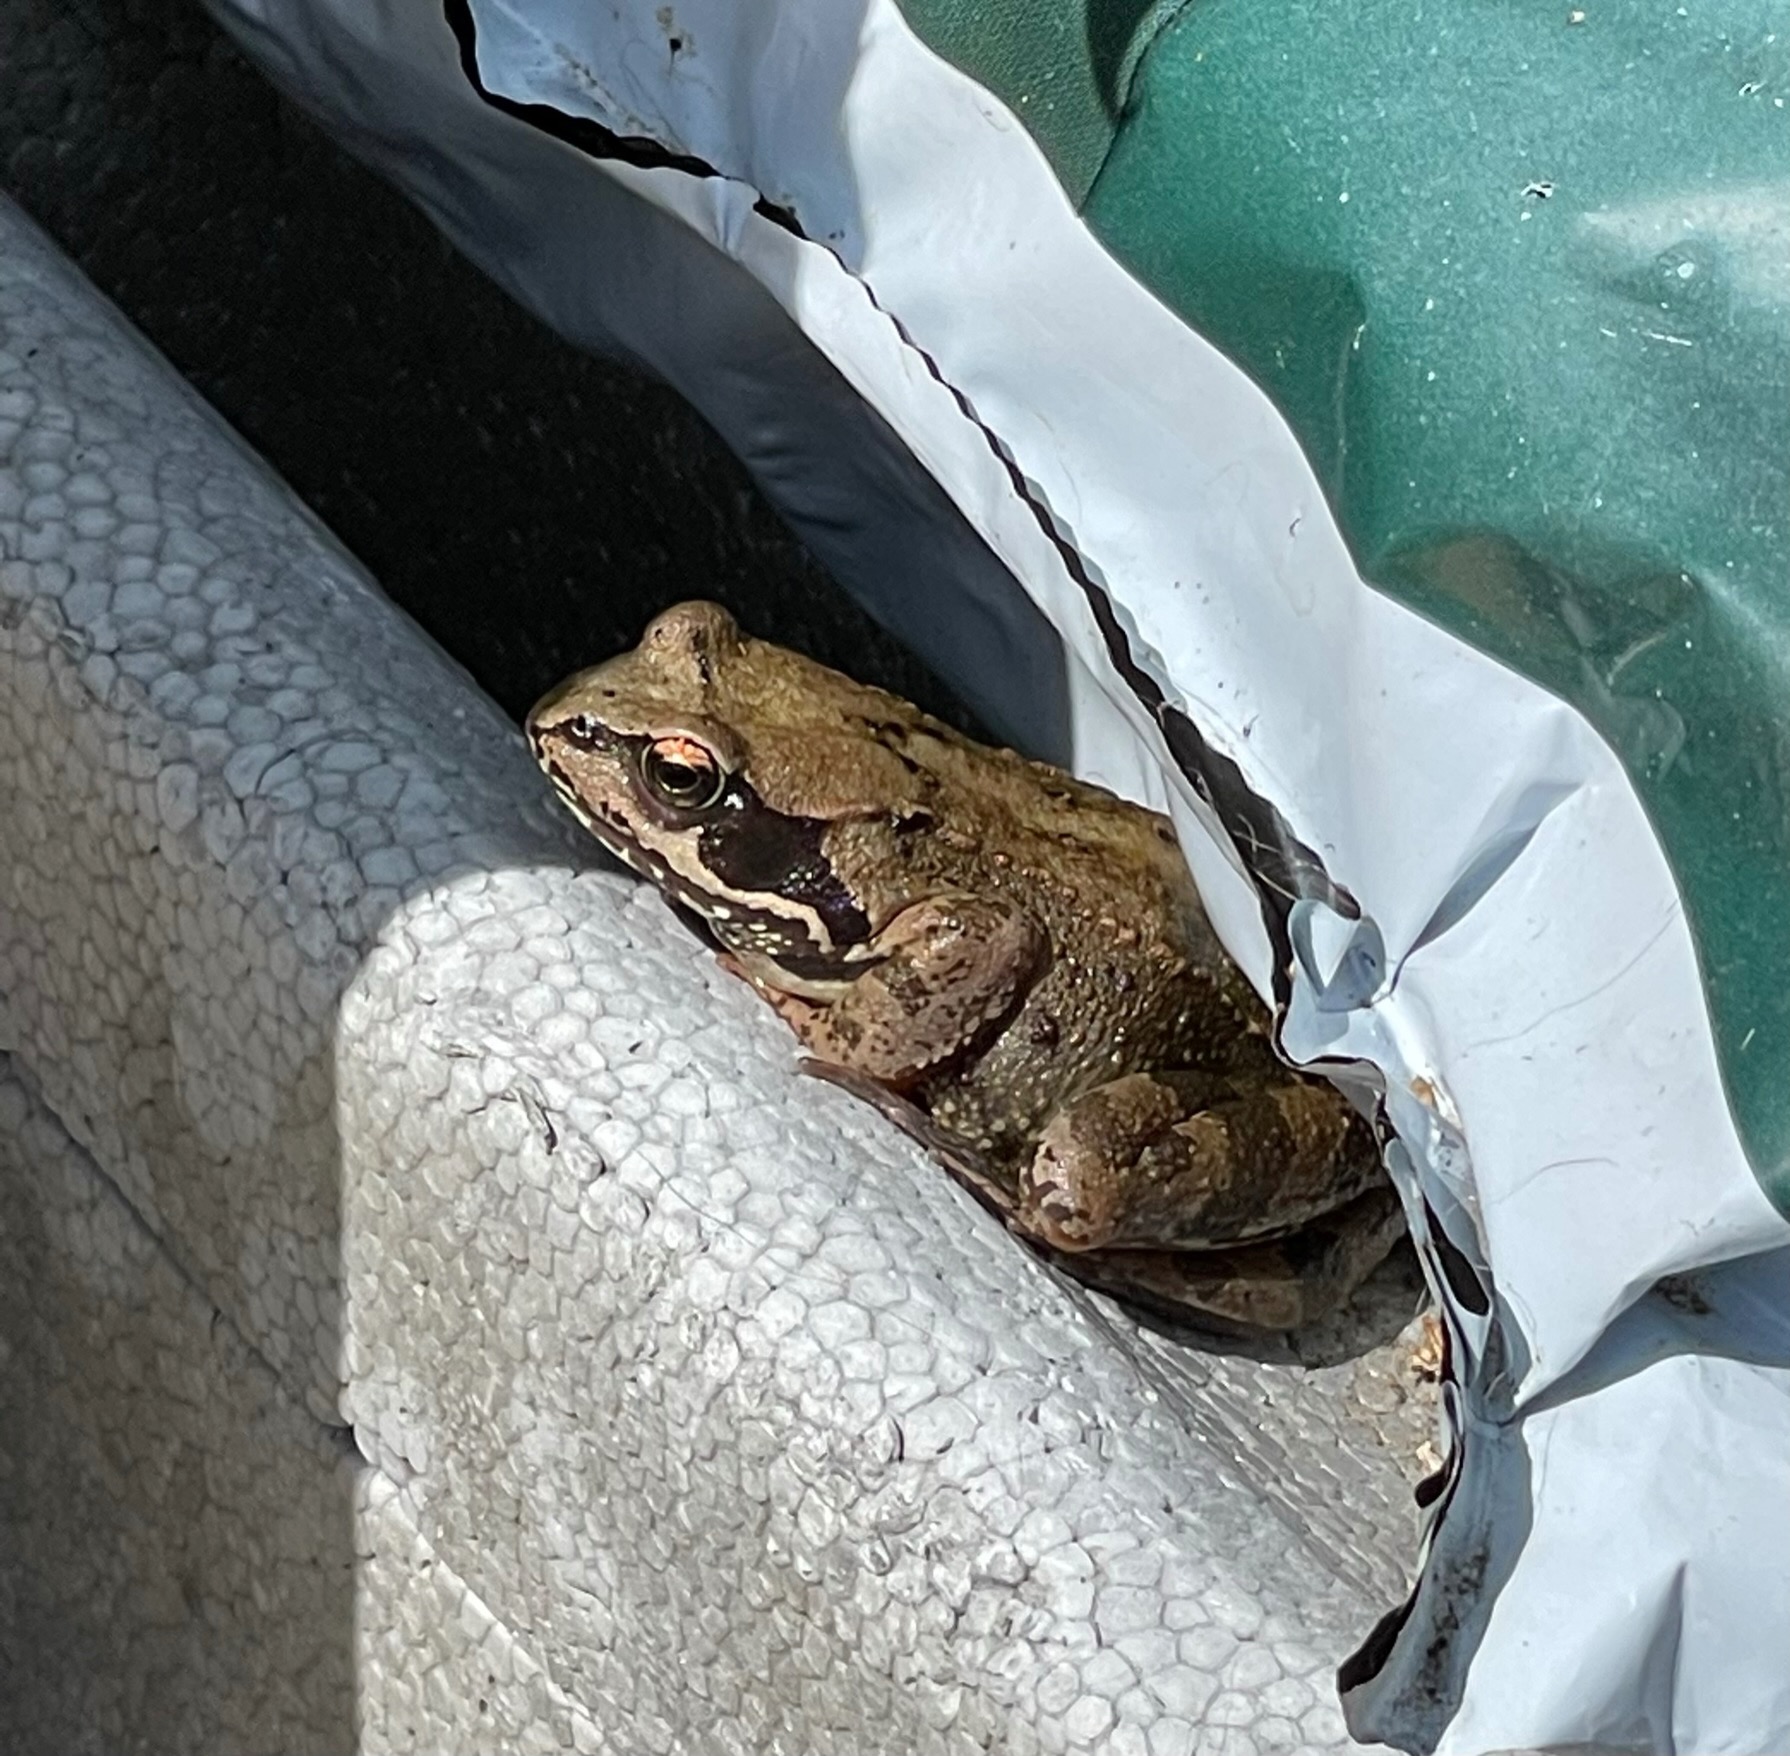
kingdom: Animalia
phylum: Chordata
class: Amphibia
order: Anura
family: Ranidae
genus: Rana
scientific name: Rana temporaria
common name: Butsnudet frø
